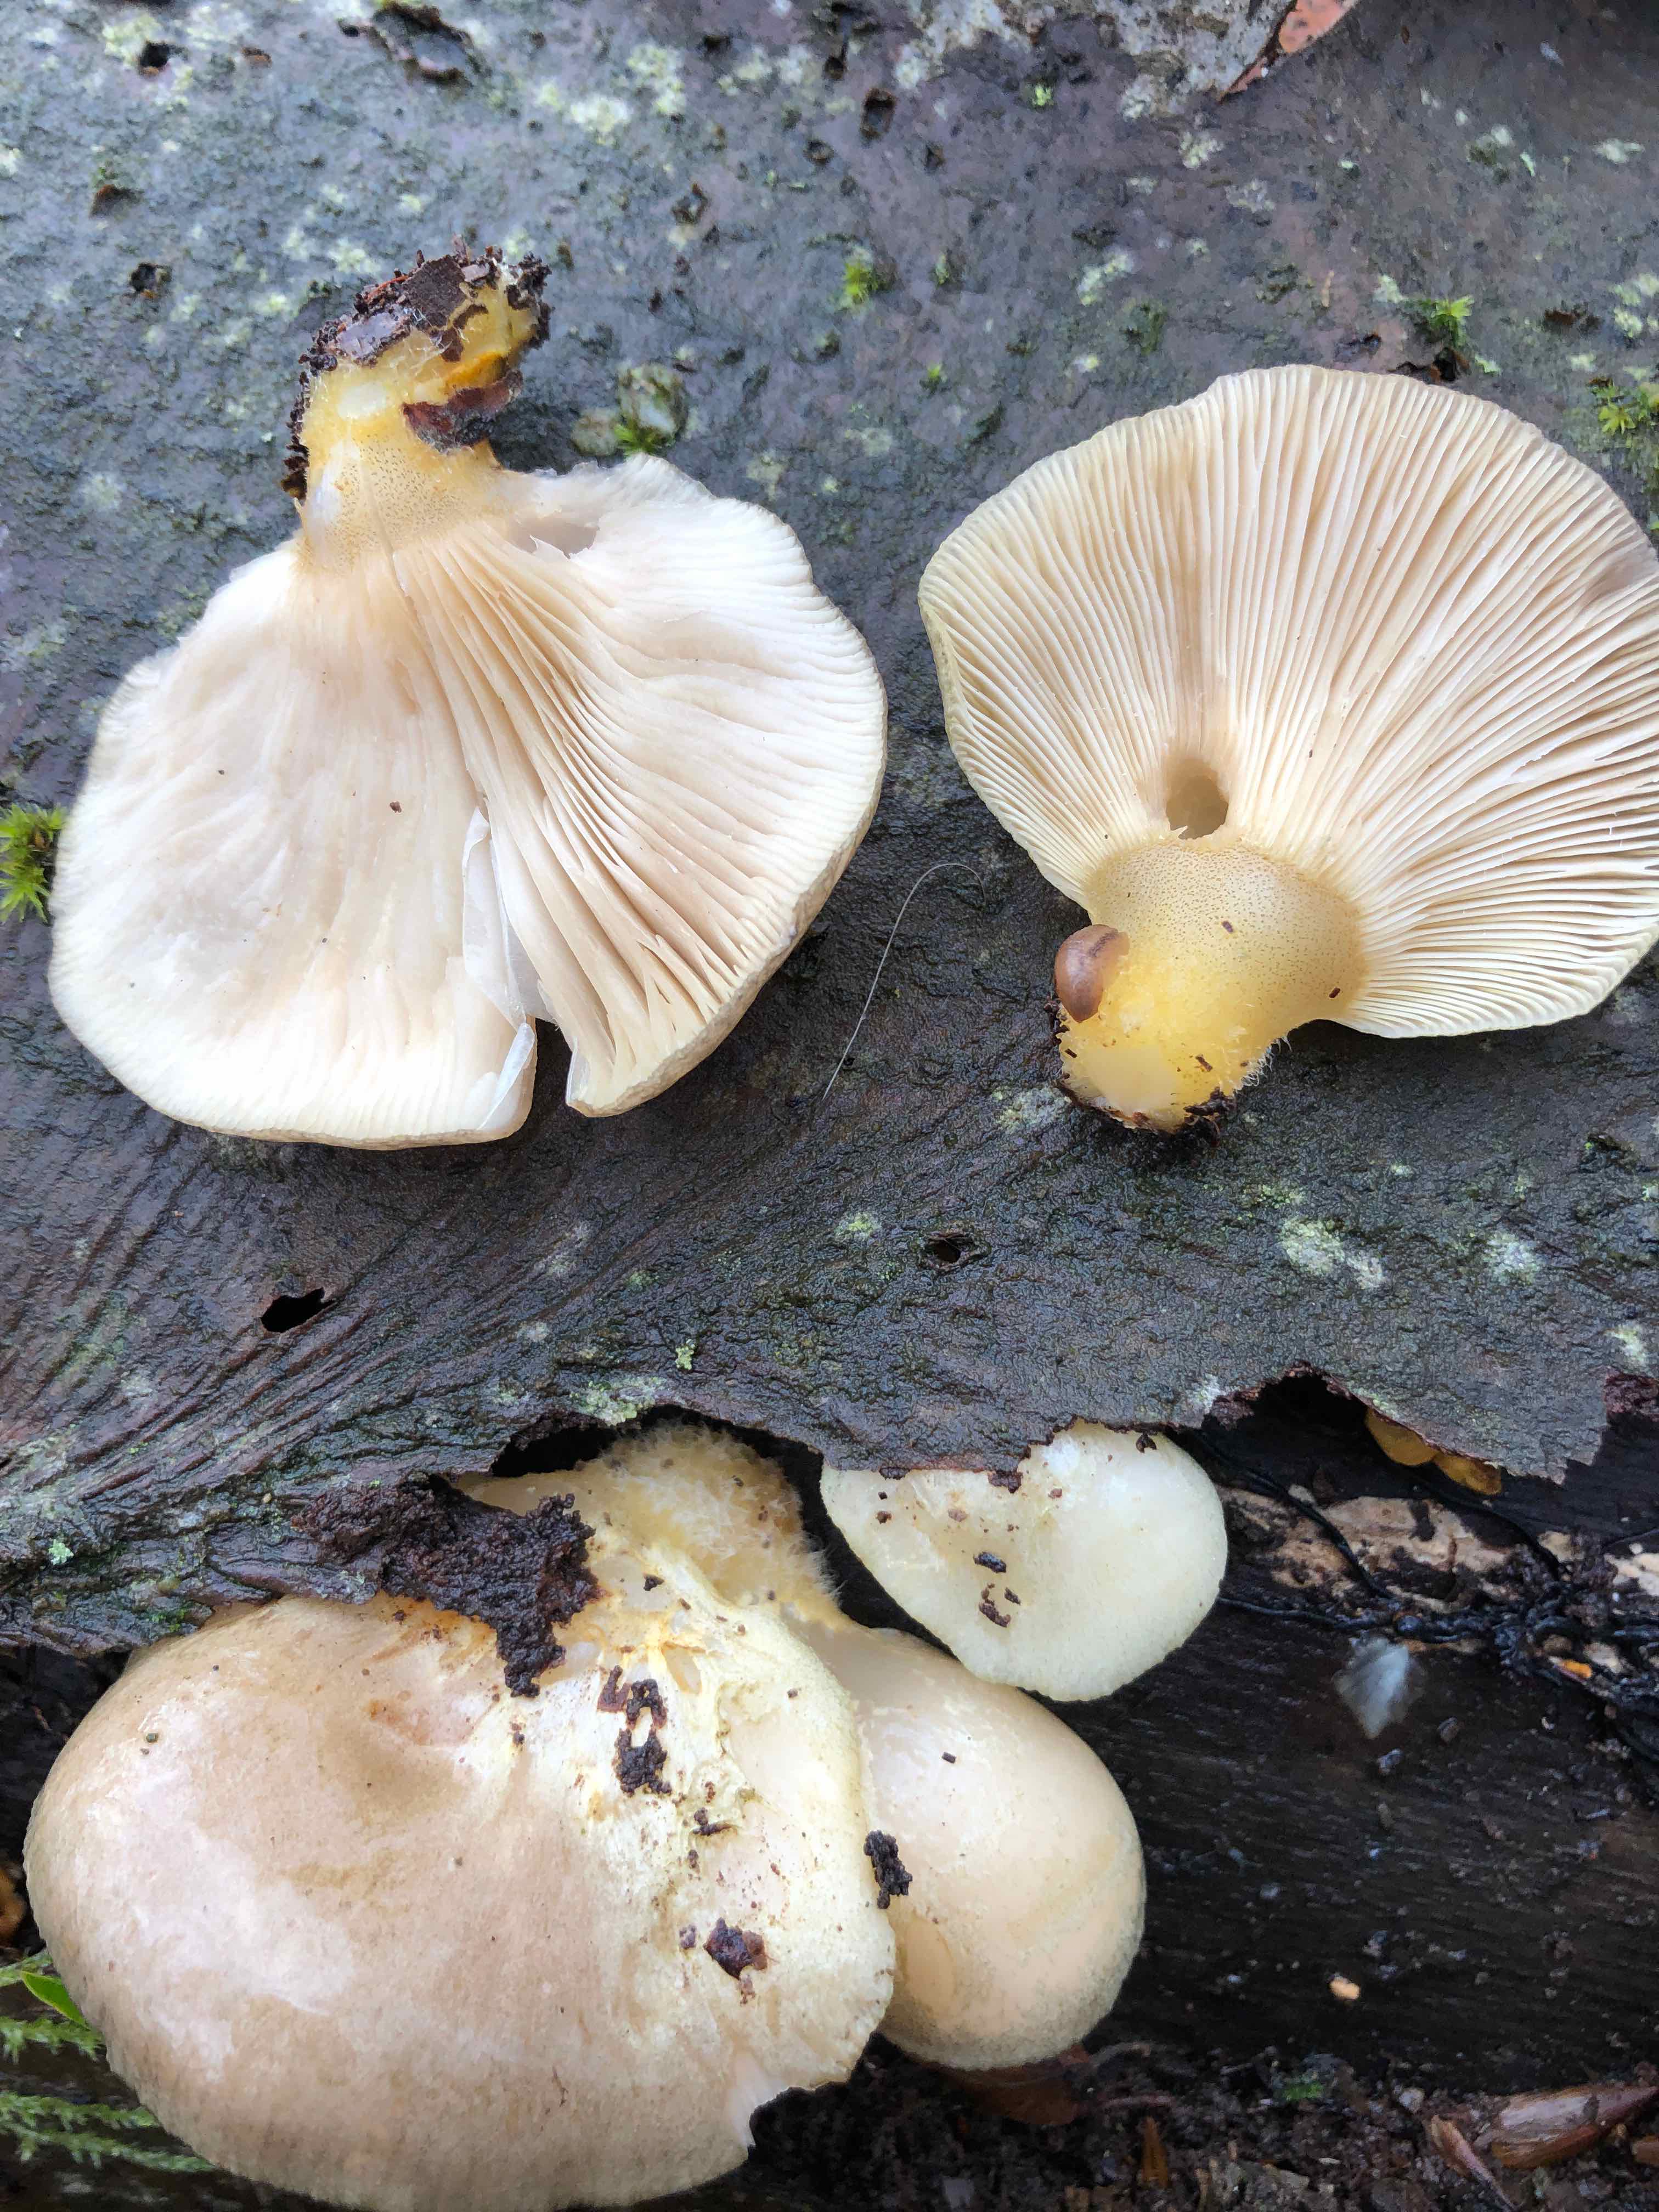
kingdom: Fungi
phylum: Basidiomycota
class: Agaricomycetes
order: Agaricales
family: Sarcomyxaceae
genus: Sarcomyxa
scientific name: Sarcomyxa serotina
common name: gummihat
